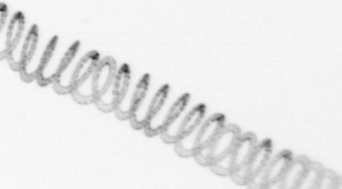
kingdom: Chromista
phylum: Ochrophyta
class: Bacillariophyceae
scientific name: Bacillariophyceae
